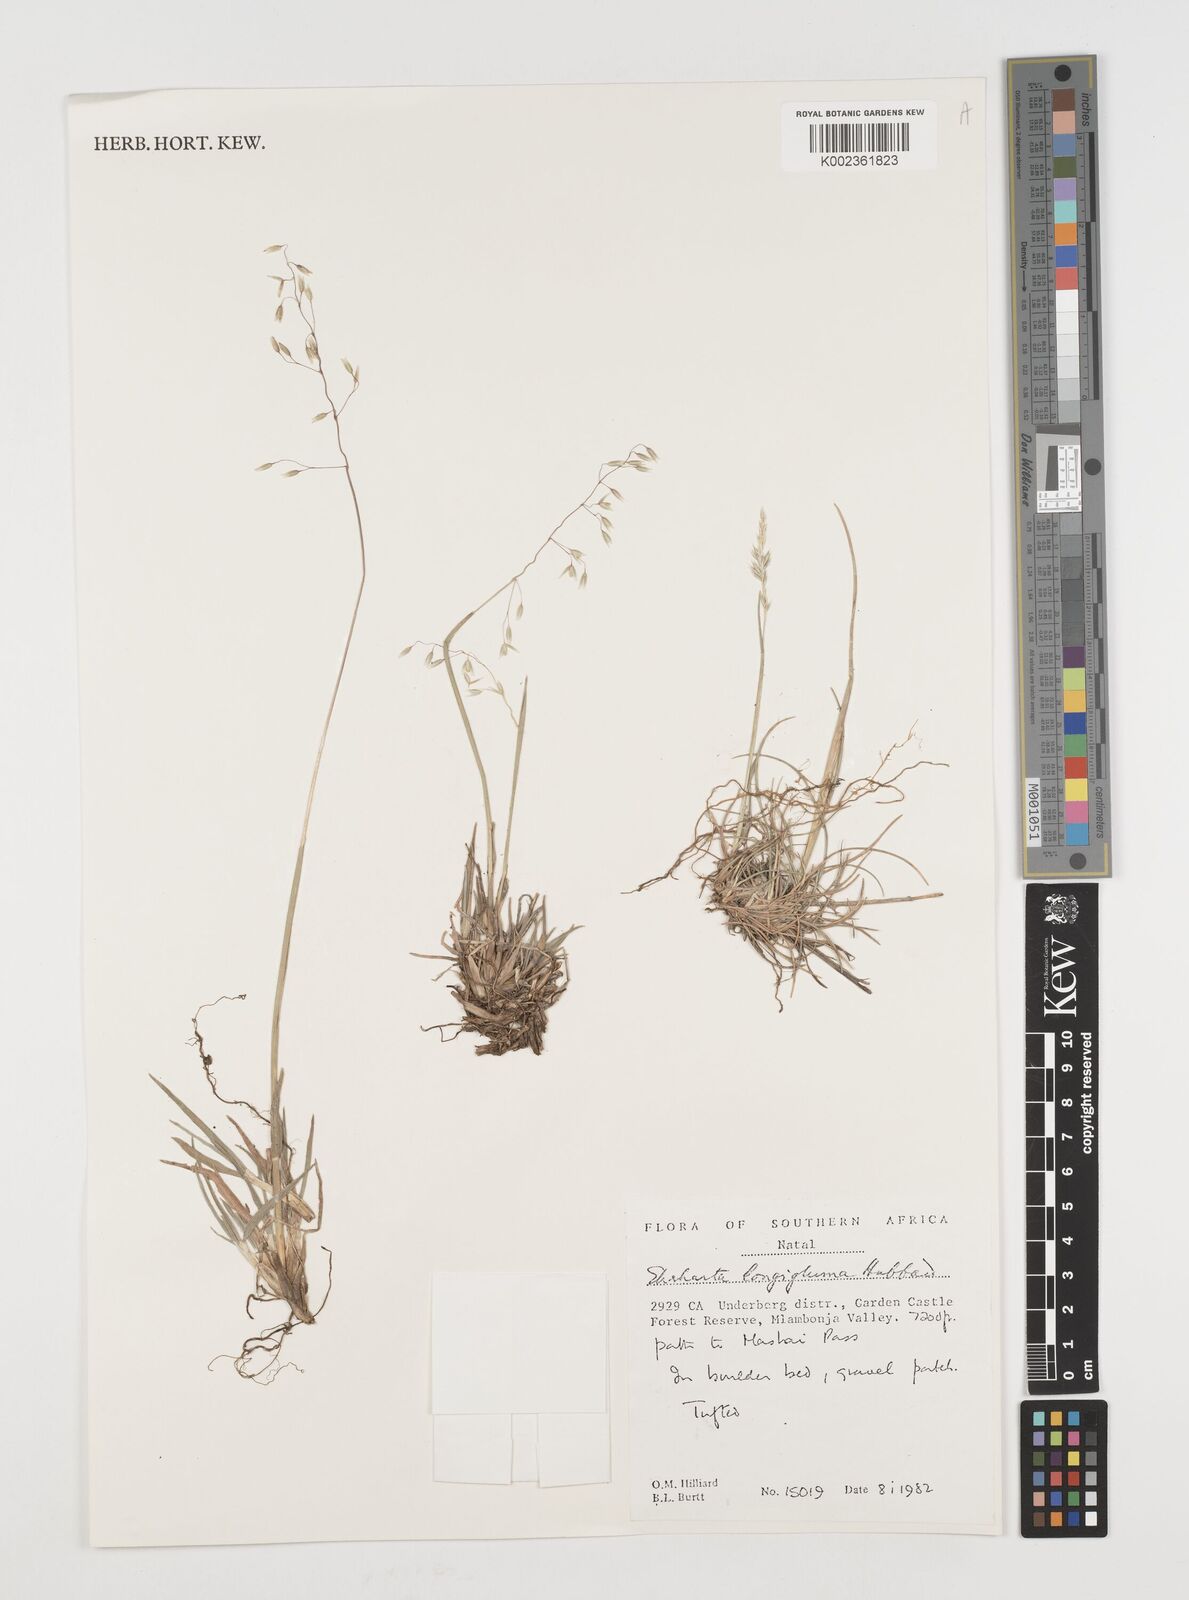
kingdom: Plantae
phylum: Tracheophyta
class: Liliopsida
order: Poales
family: Poaceae
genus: Ehrharta
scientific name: Ehrharta longigluma
